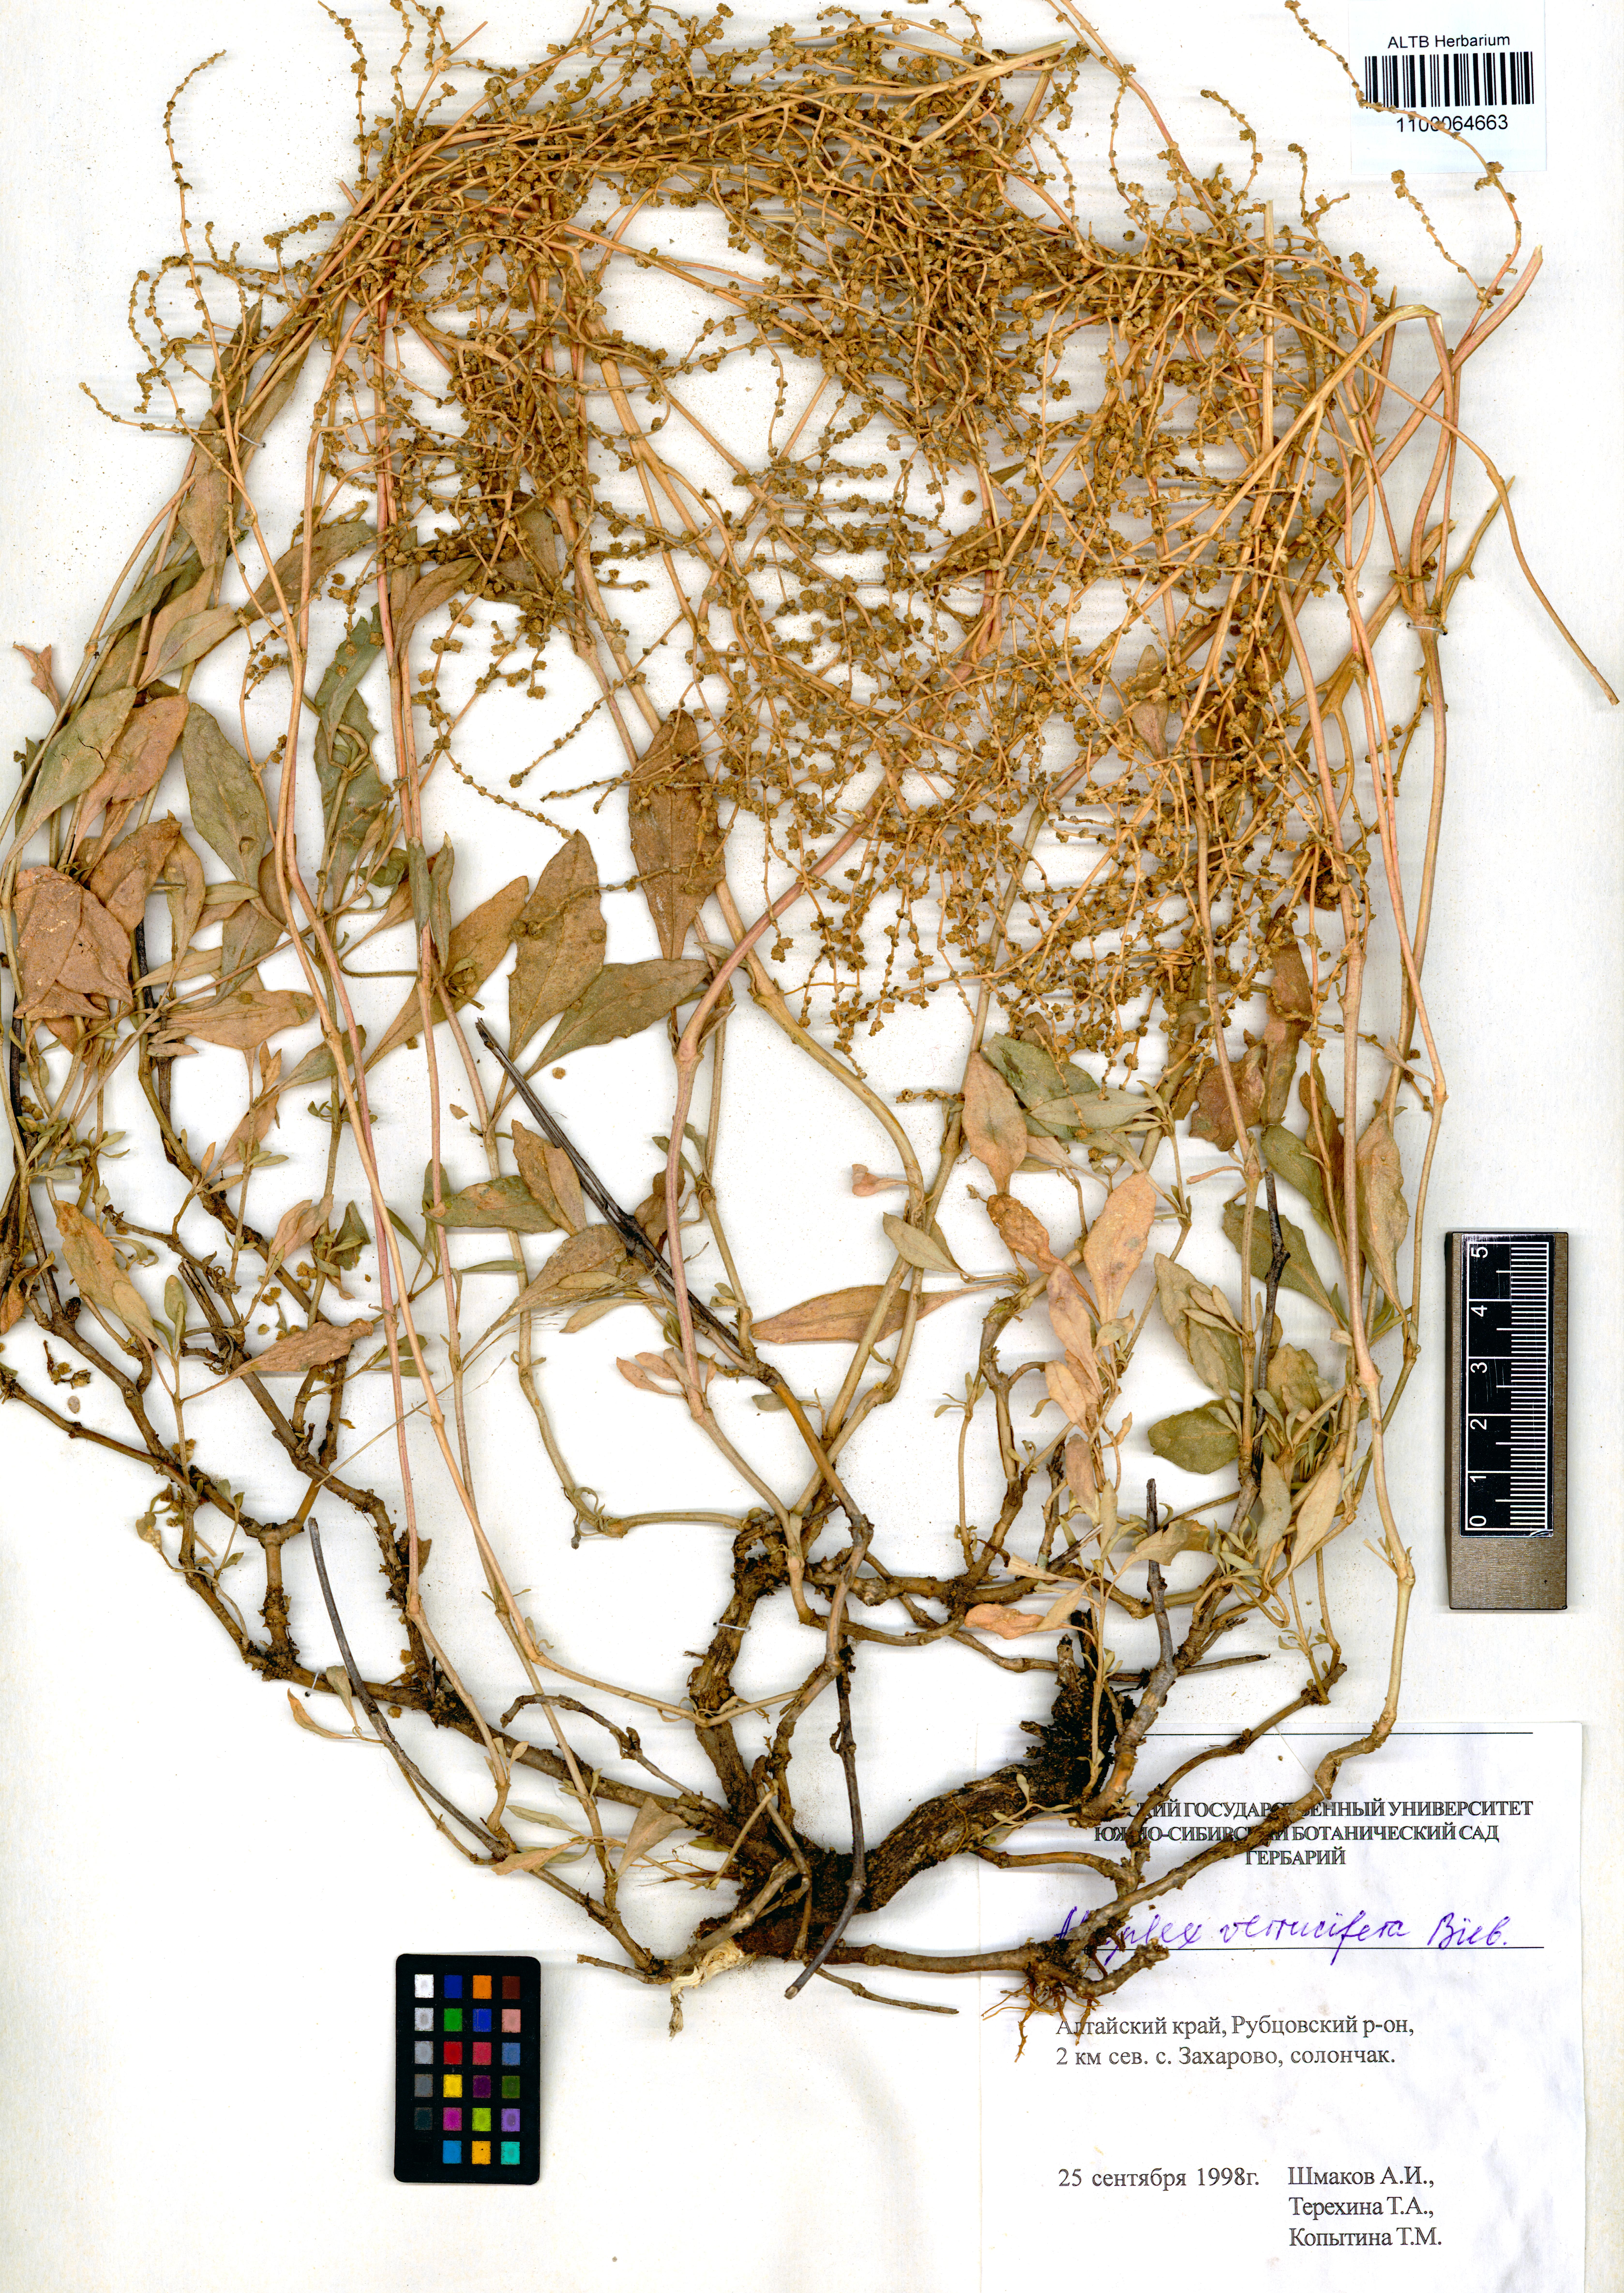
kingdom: Plantae
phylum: Tracheophyta
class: Magnoliopsida
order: Caryophyllales
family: Amaranthaceae
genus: Halimione
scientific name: Halimione verrucifera
